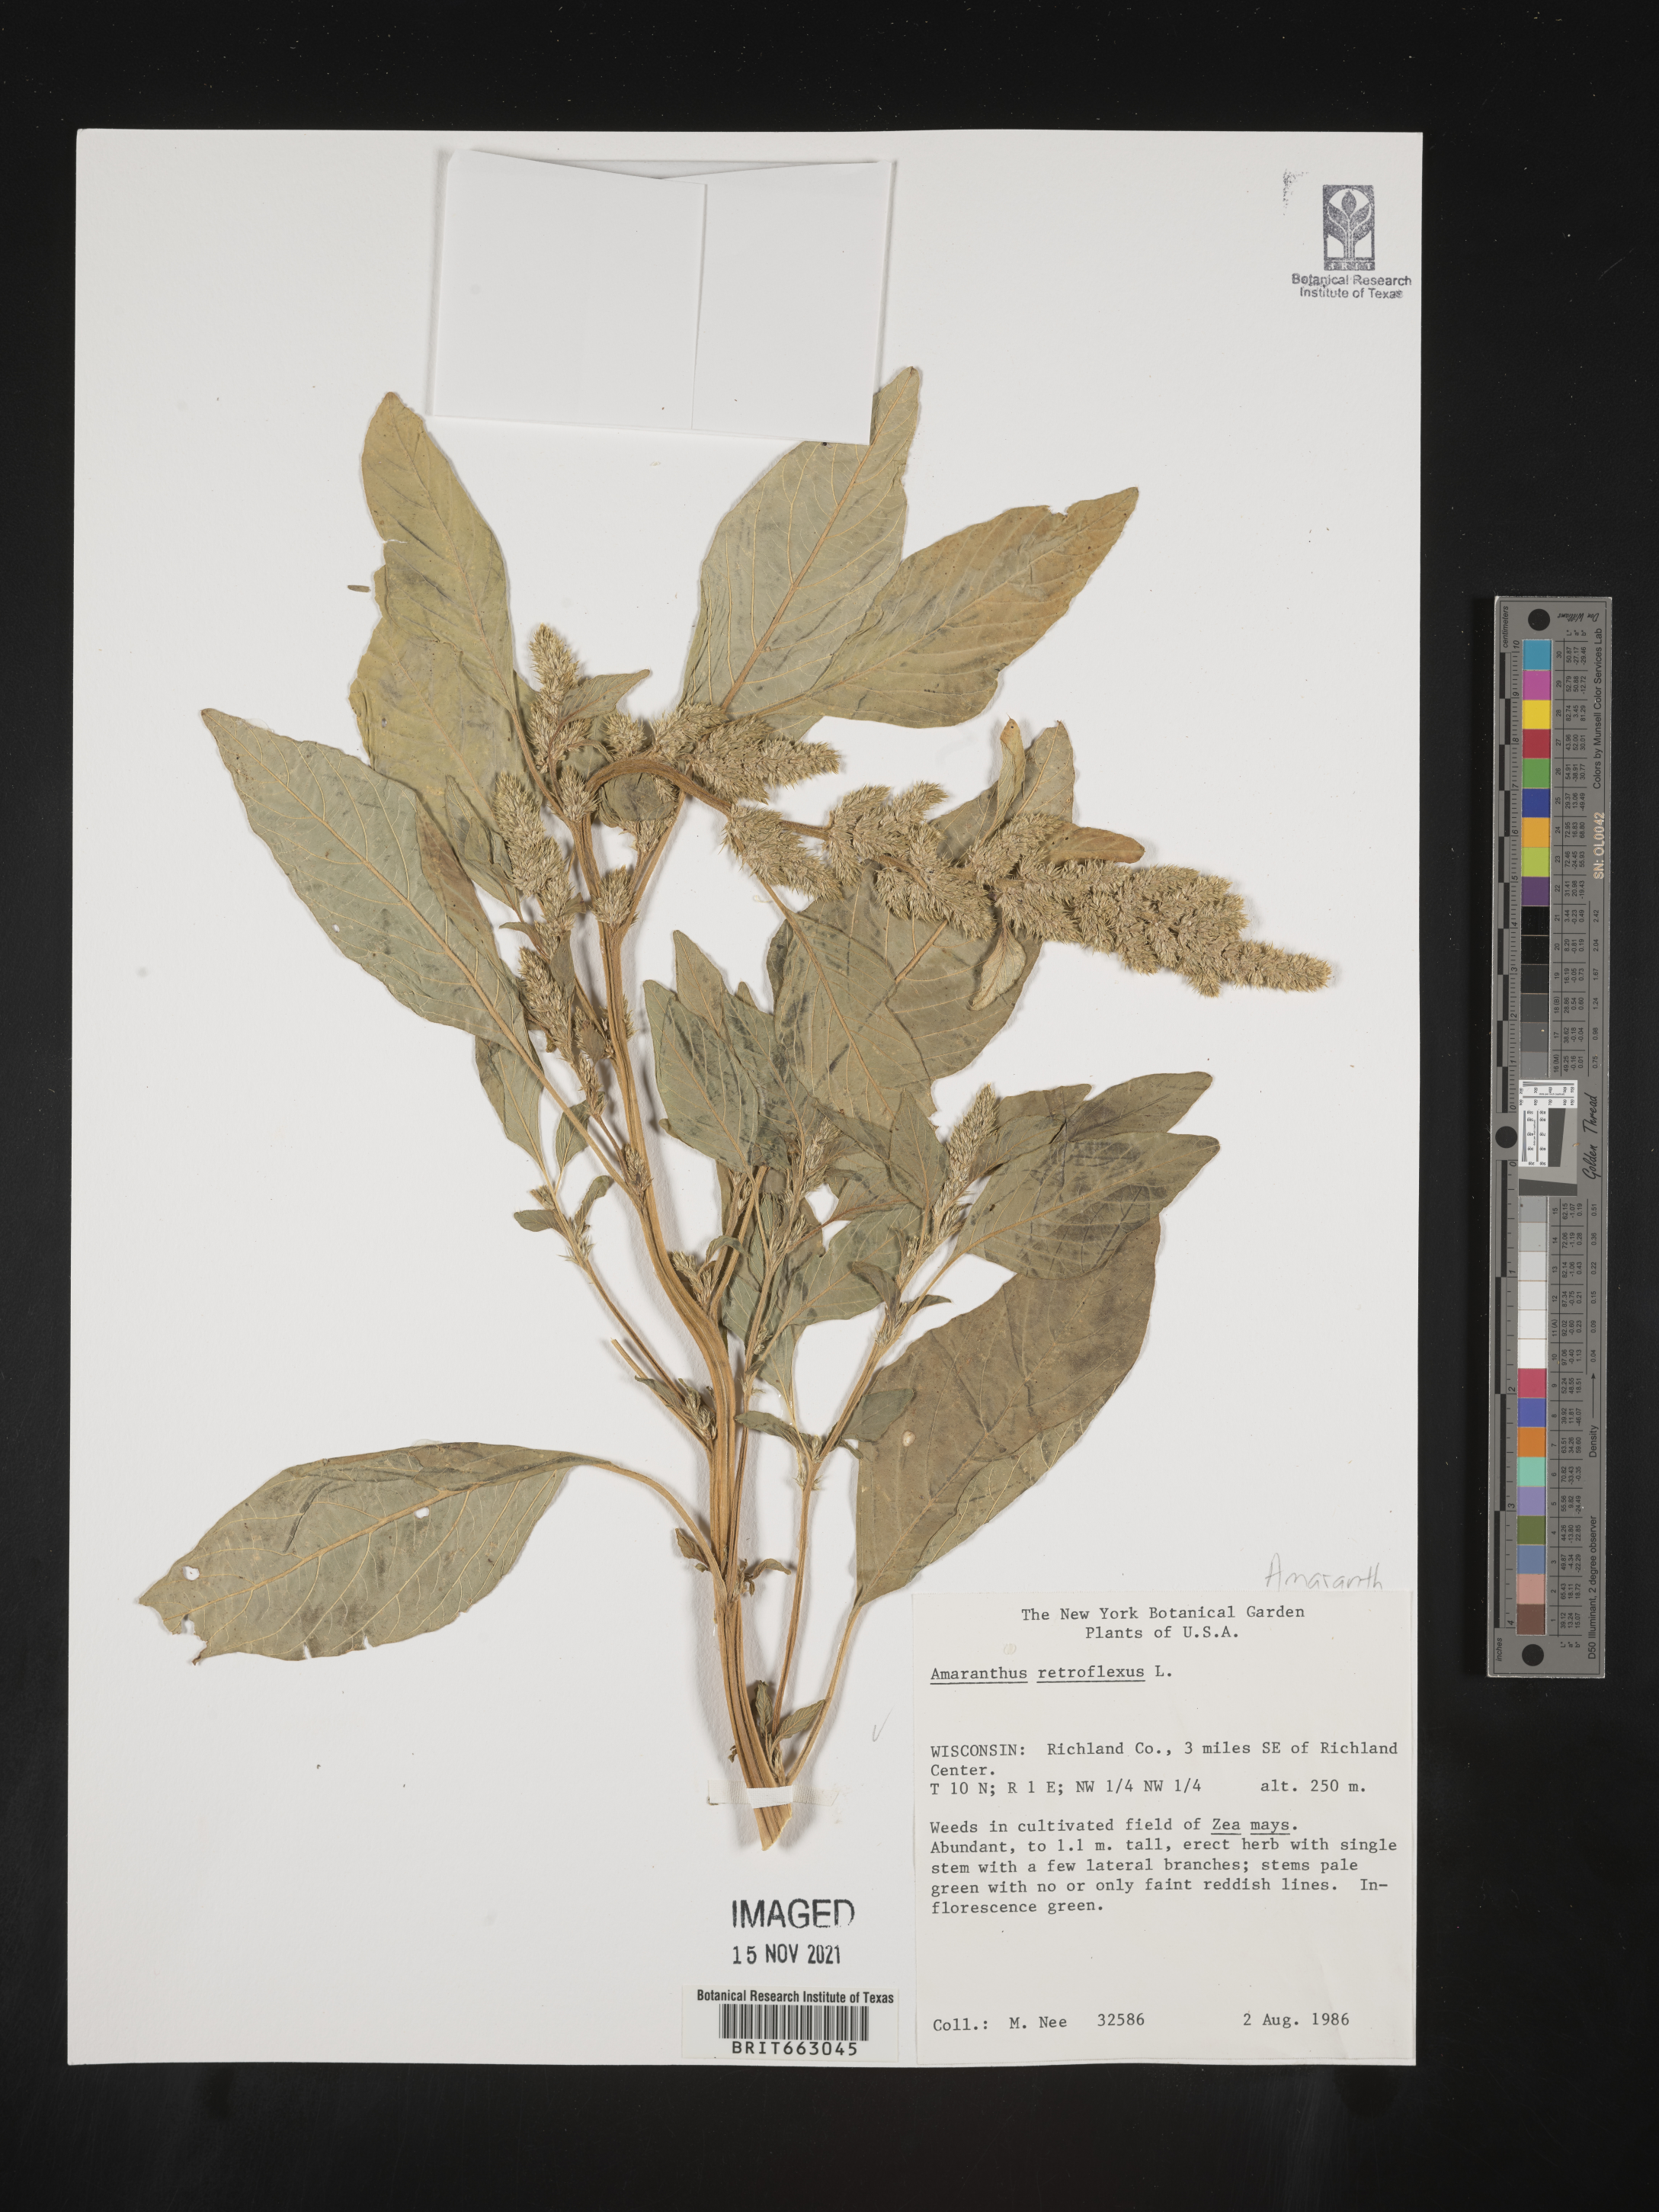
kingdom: Plantae
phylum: Tracheophyta
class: Magnoliopsida
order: Caryophyllales
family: Amaranthaceae
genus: Amaranthus
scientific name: Amaranthus retroflexus
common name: Redroot amaranth
